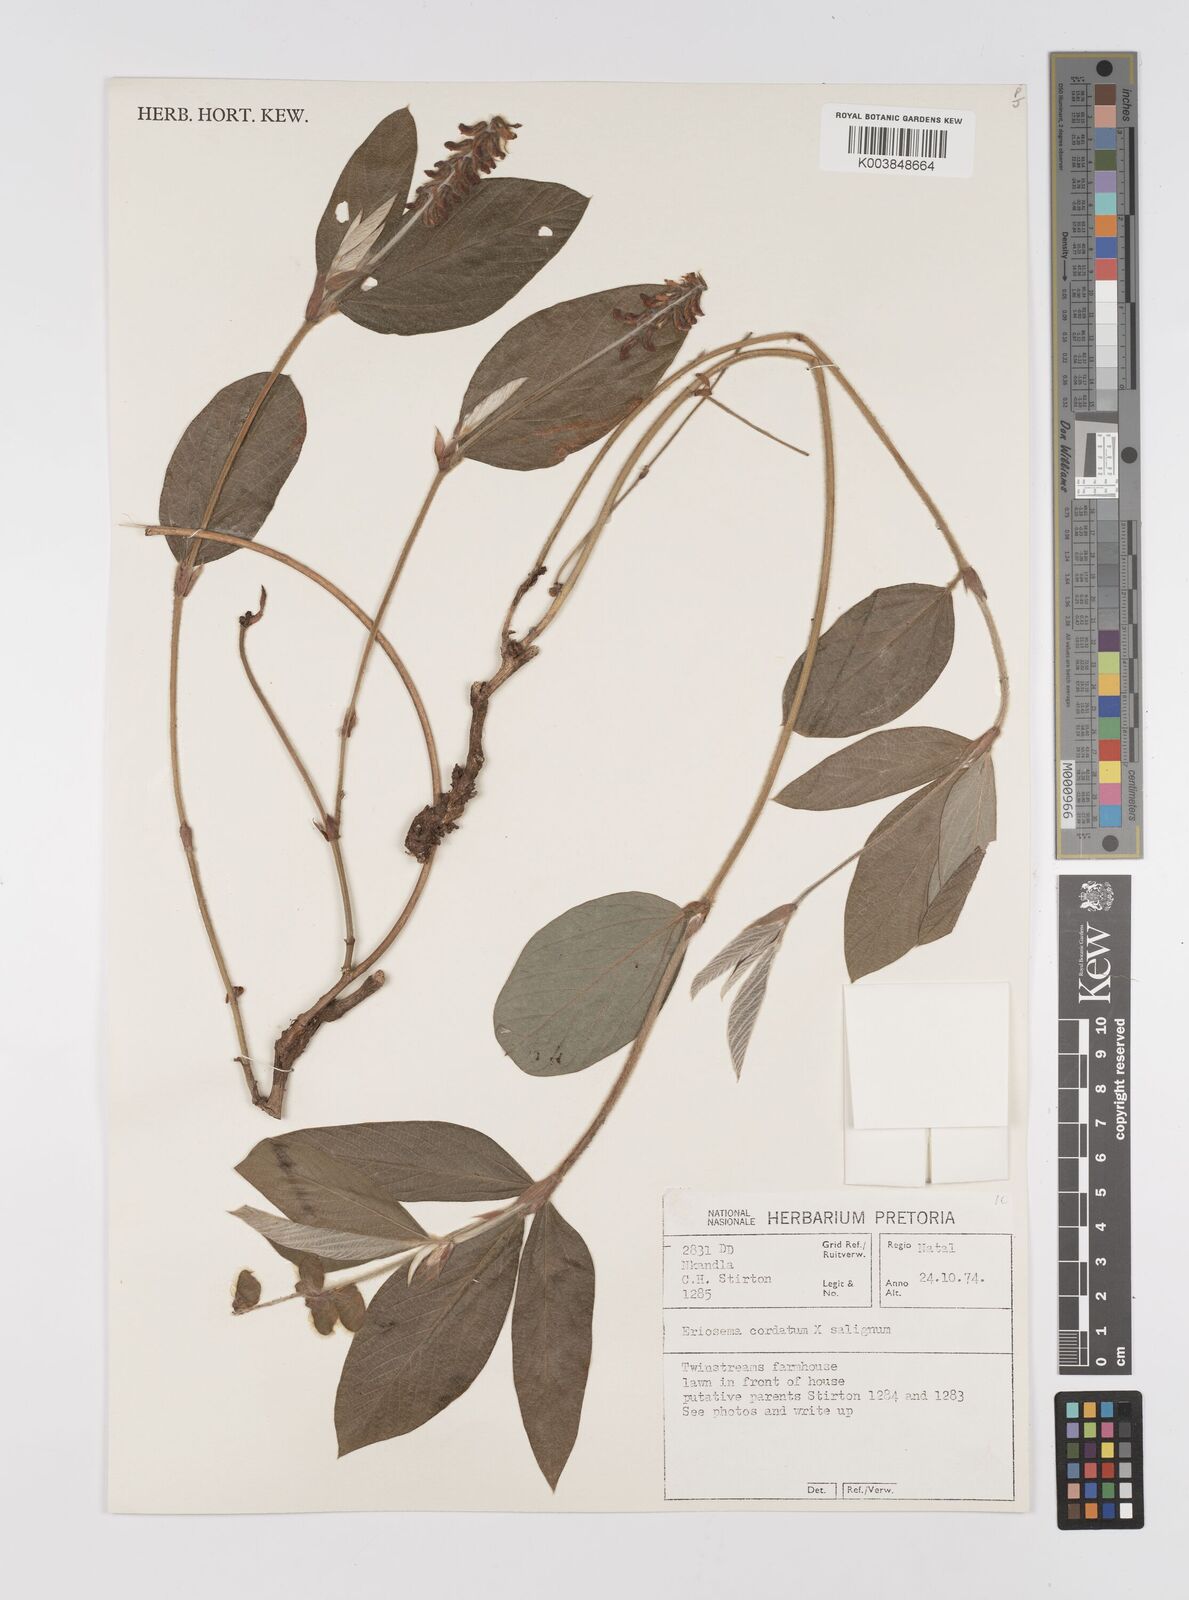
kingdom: Plantae
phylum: Tracheophyta
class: Magnoliopsida
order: Fabales
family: Fabaceae
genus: Eriosema
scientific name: Eriosema cordatum
